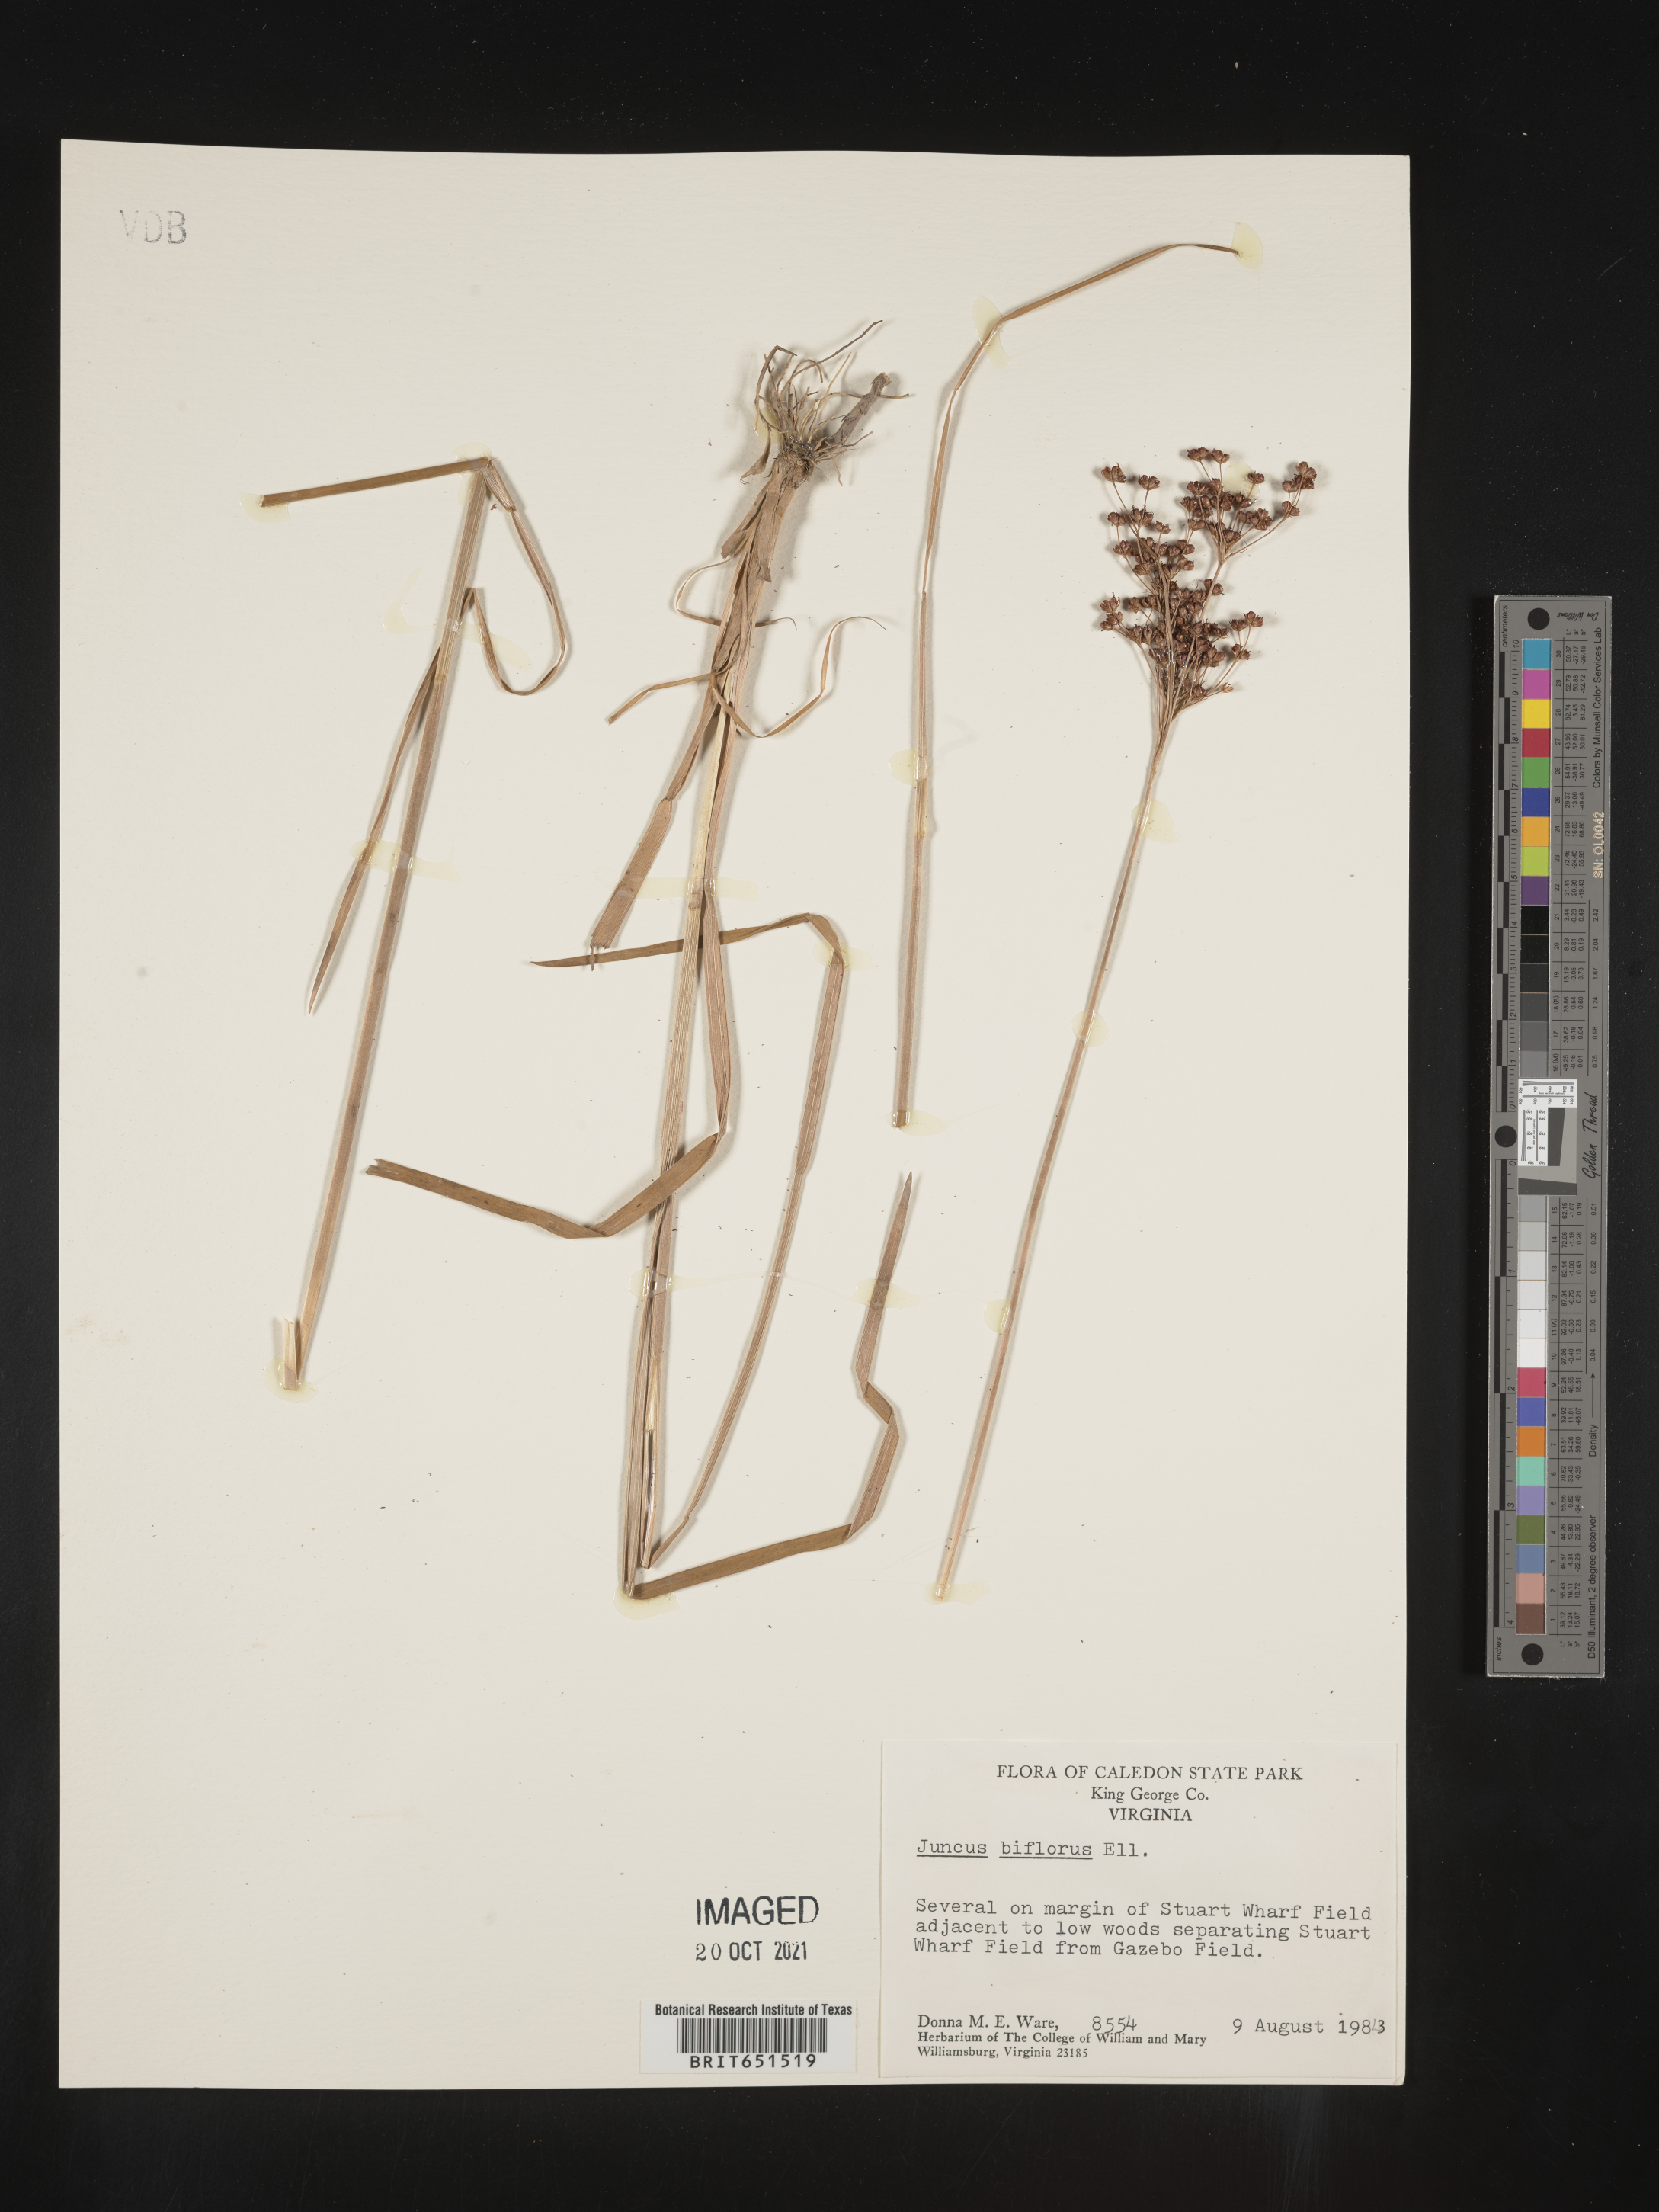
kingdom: Plantae
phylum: Tracheophyta
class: Liliopsida
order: Poales
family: Juncaceae
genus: Juncus
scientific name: Juncus biflorus
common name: Two-flowered rush
